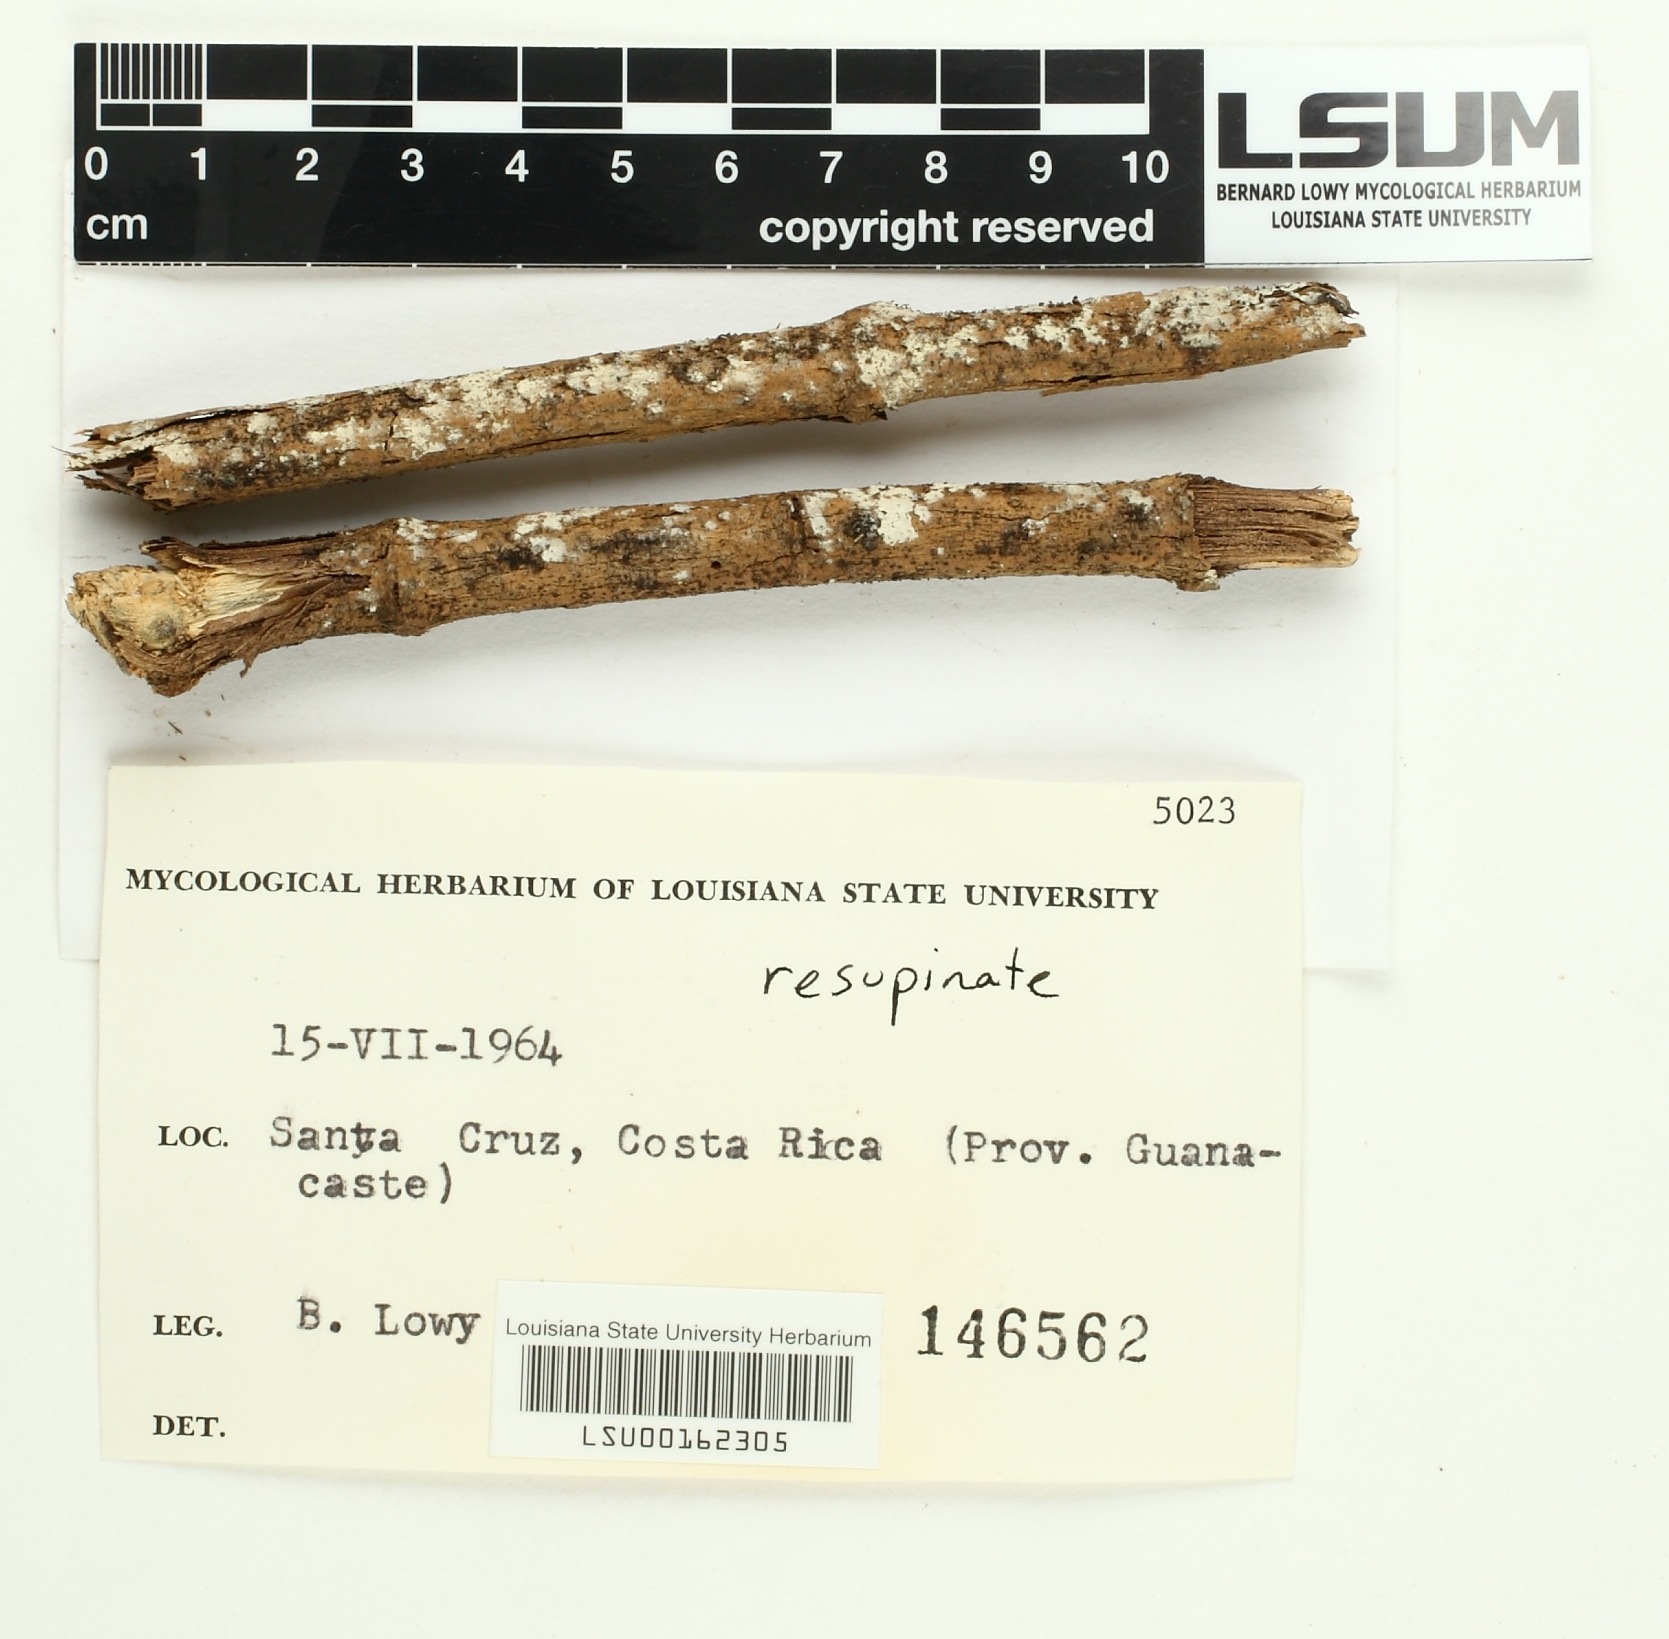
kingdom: Fungi
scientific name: Fungi
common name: Fungi
